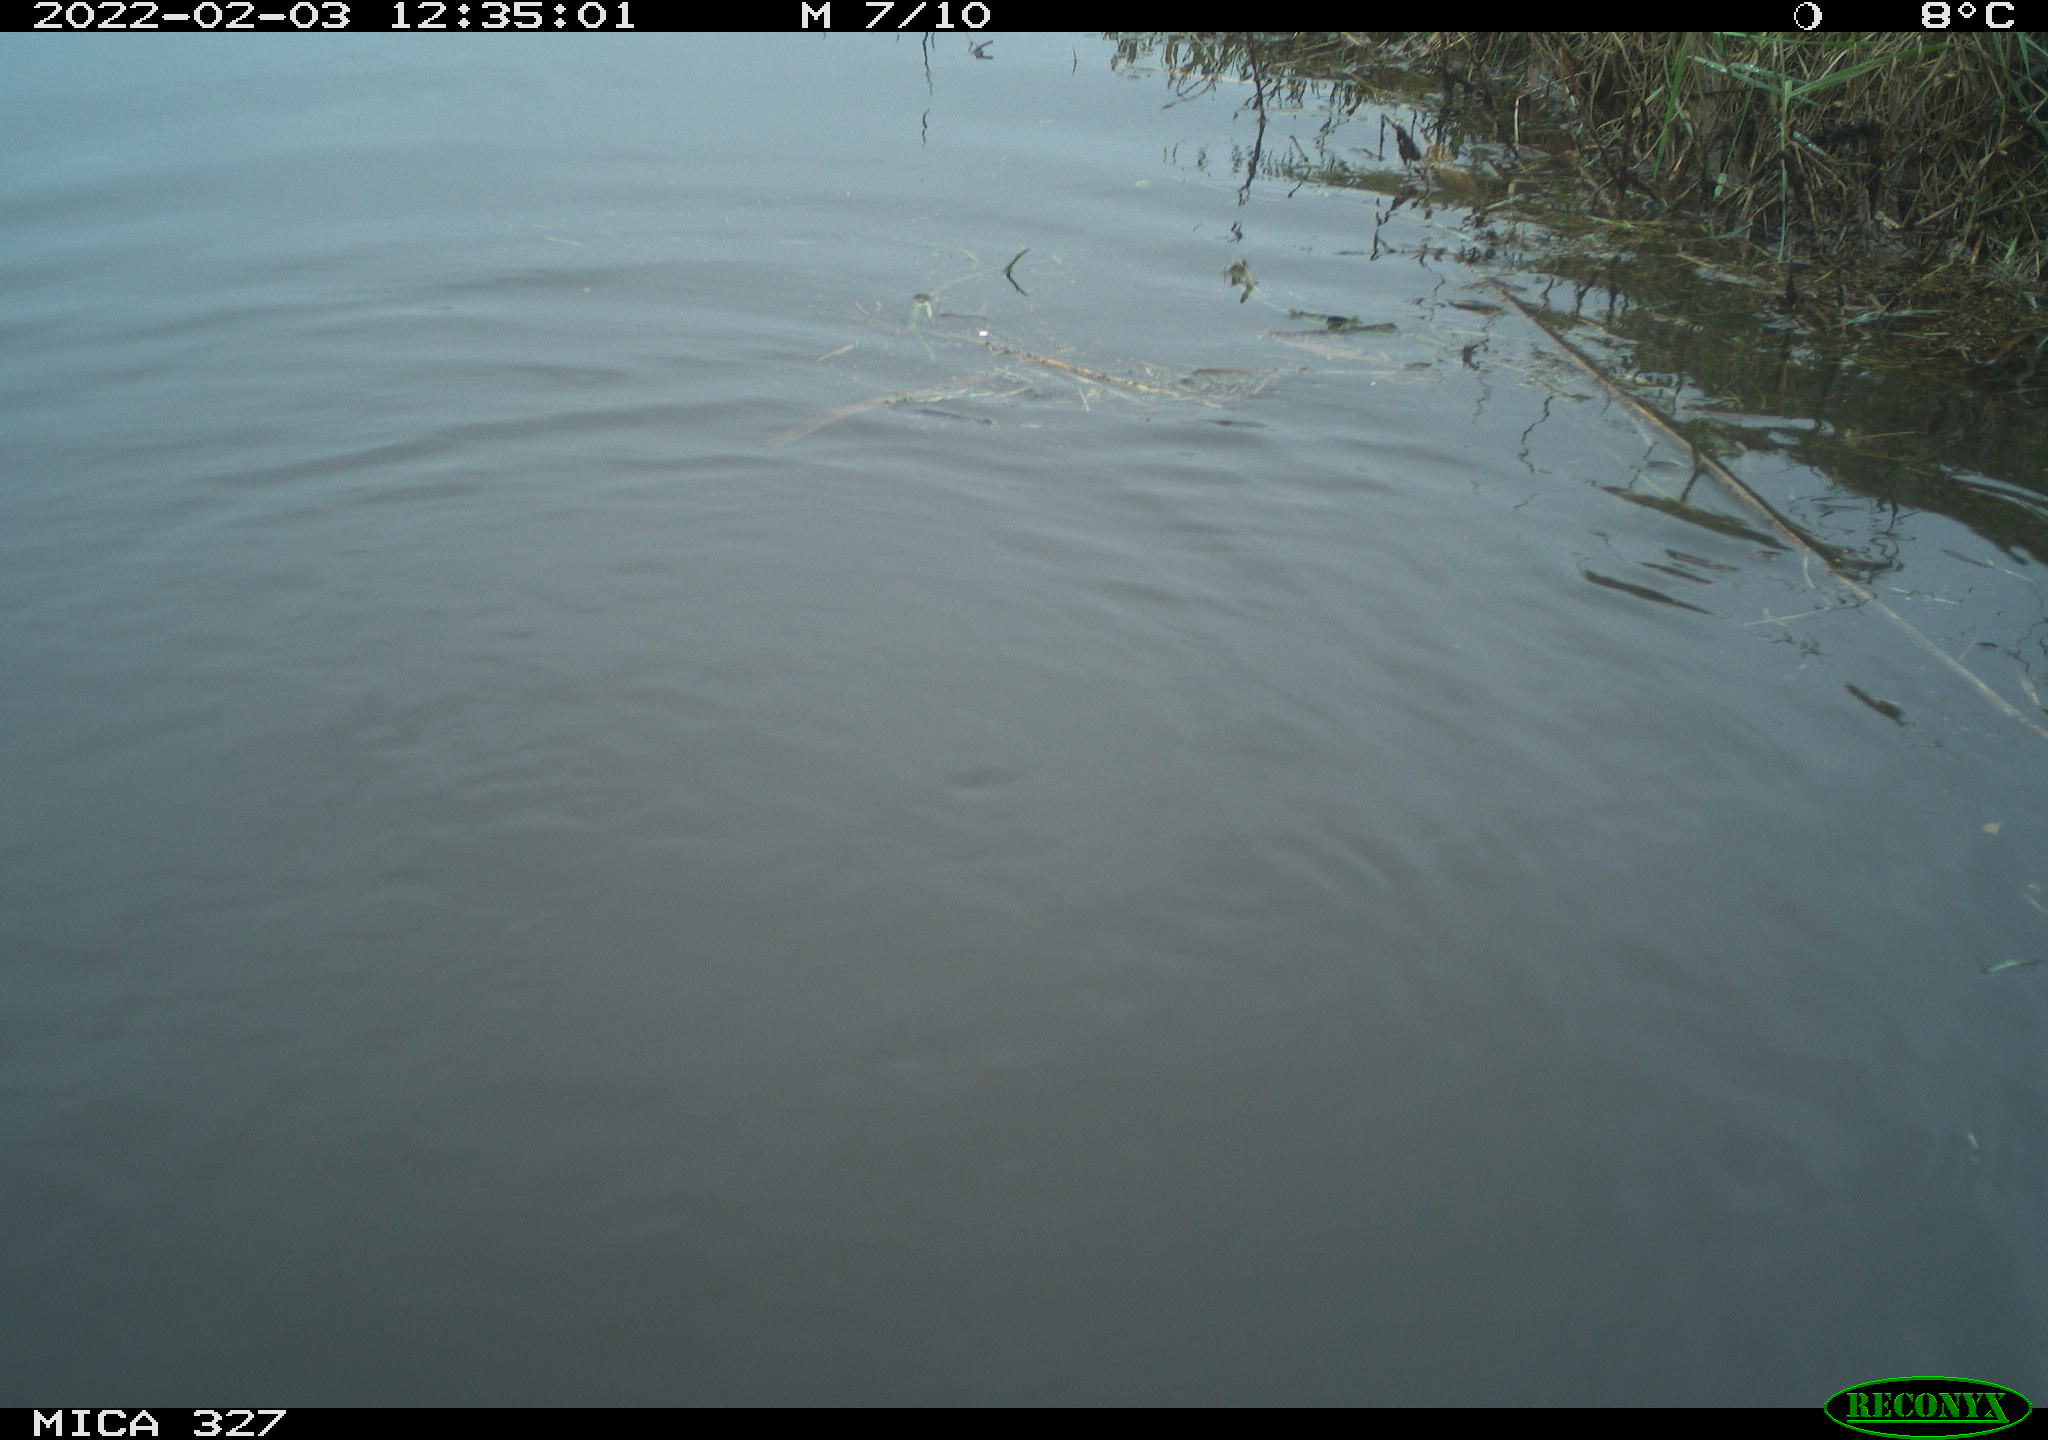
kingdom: Animalia
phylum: Chordata
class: Aves
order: Podicipediformes
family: Podicipedidae
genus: Tachybaptus
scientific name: Tachybaptus ruficollis
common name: Little grebe
